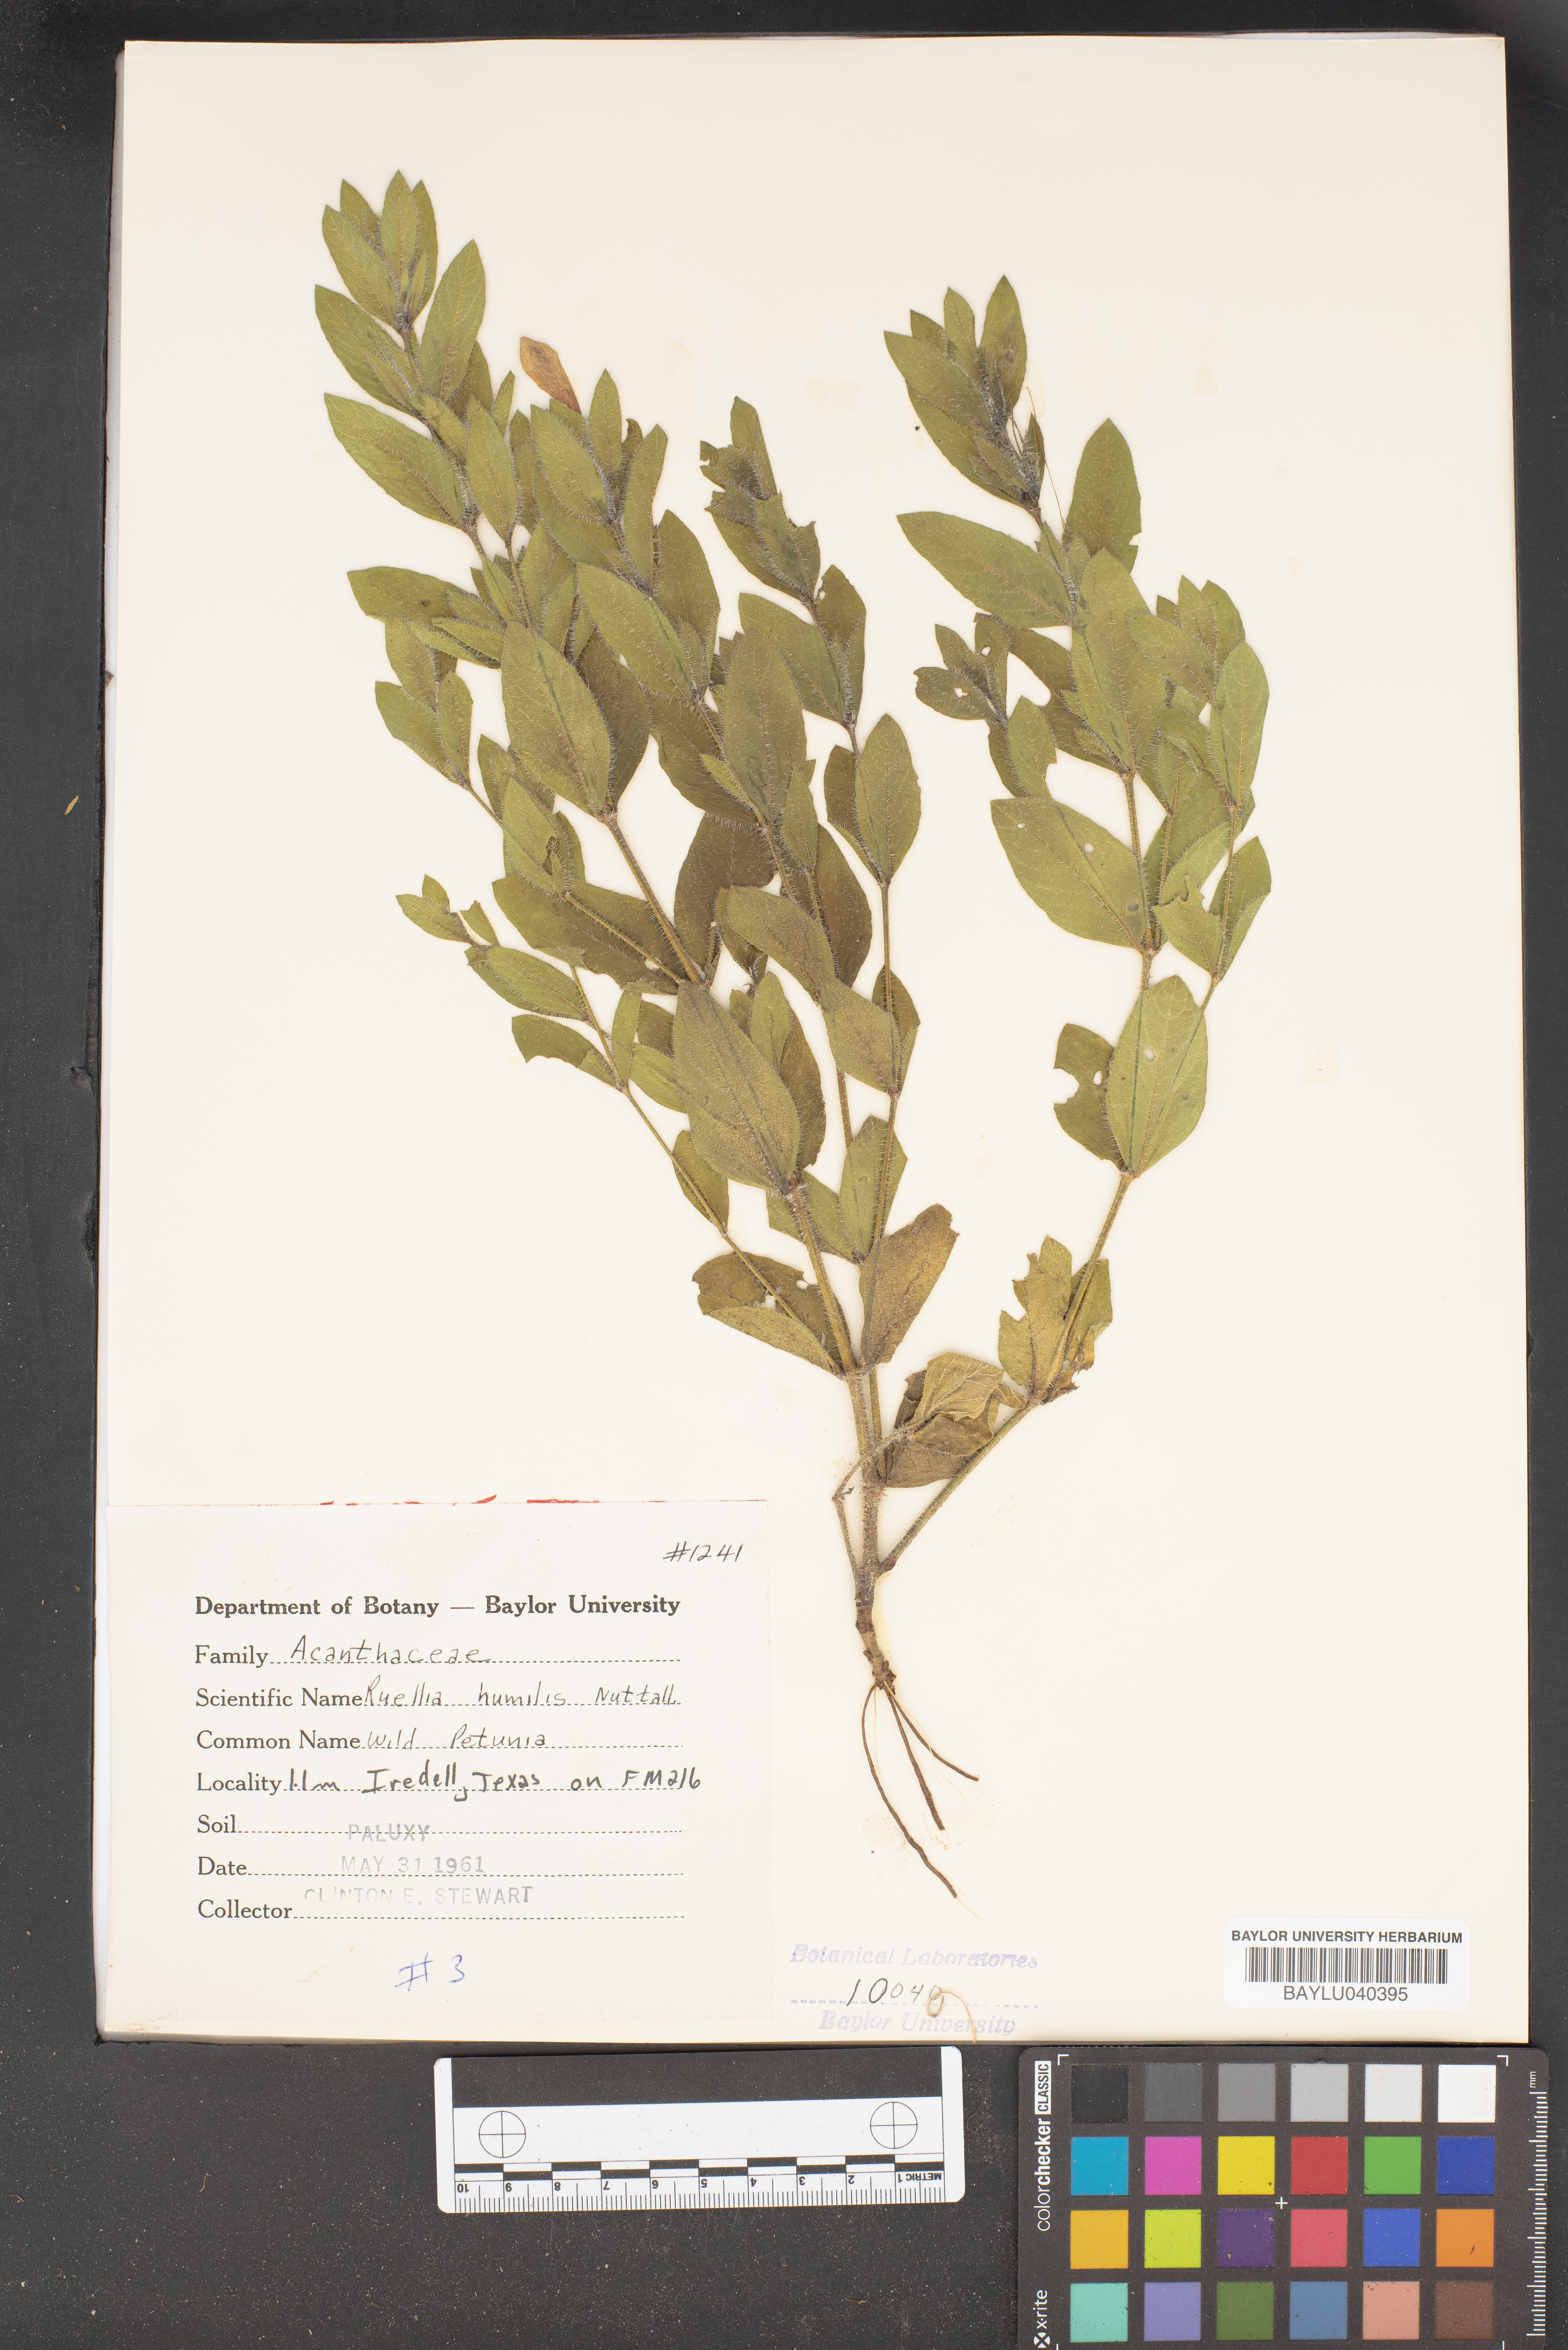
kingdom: Plantae
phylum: Tracheophyta
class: Magnoliopsida
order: Lamiales
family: Acanthaceae
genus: Ruellia
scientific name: Ruellia humilis
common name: Fringe-leaf ruellia
